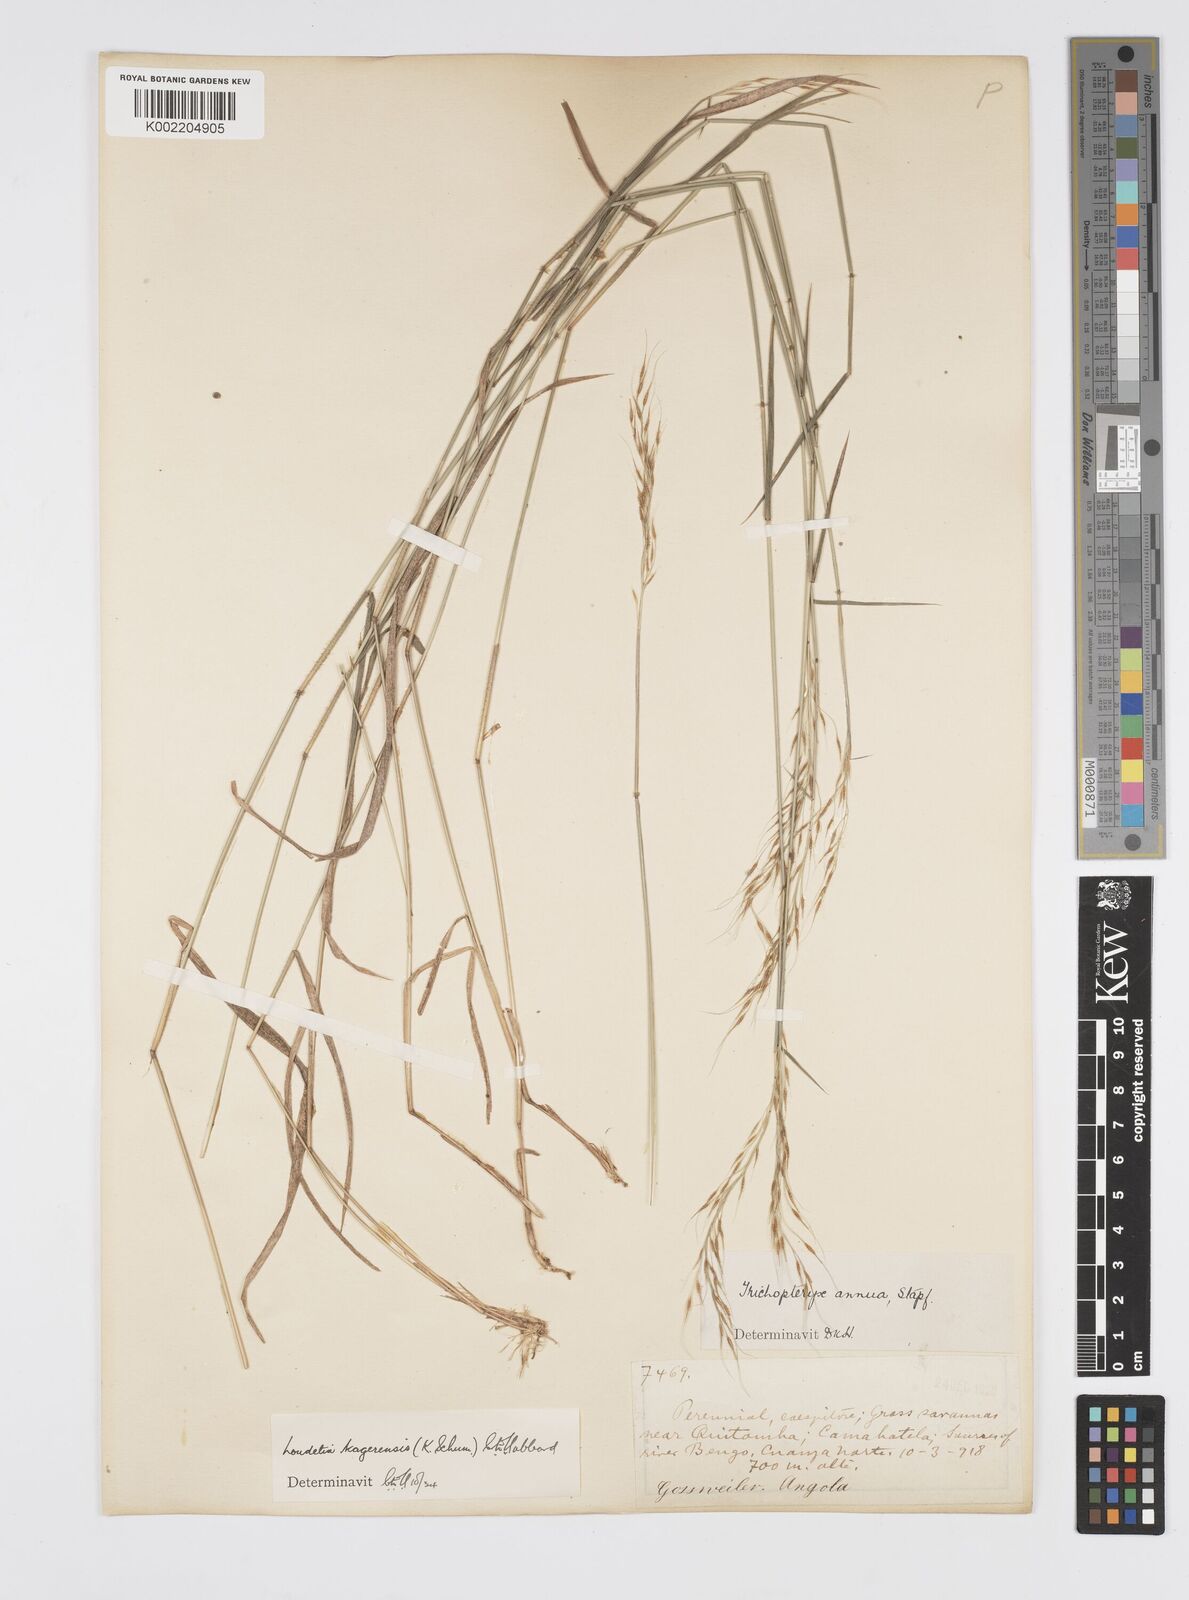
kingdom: Plantae
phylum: Tracheophyta
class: Liliopsida
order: Poales
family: Poaceae
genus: Loudetia
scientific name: Loudetia kagerensis
